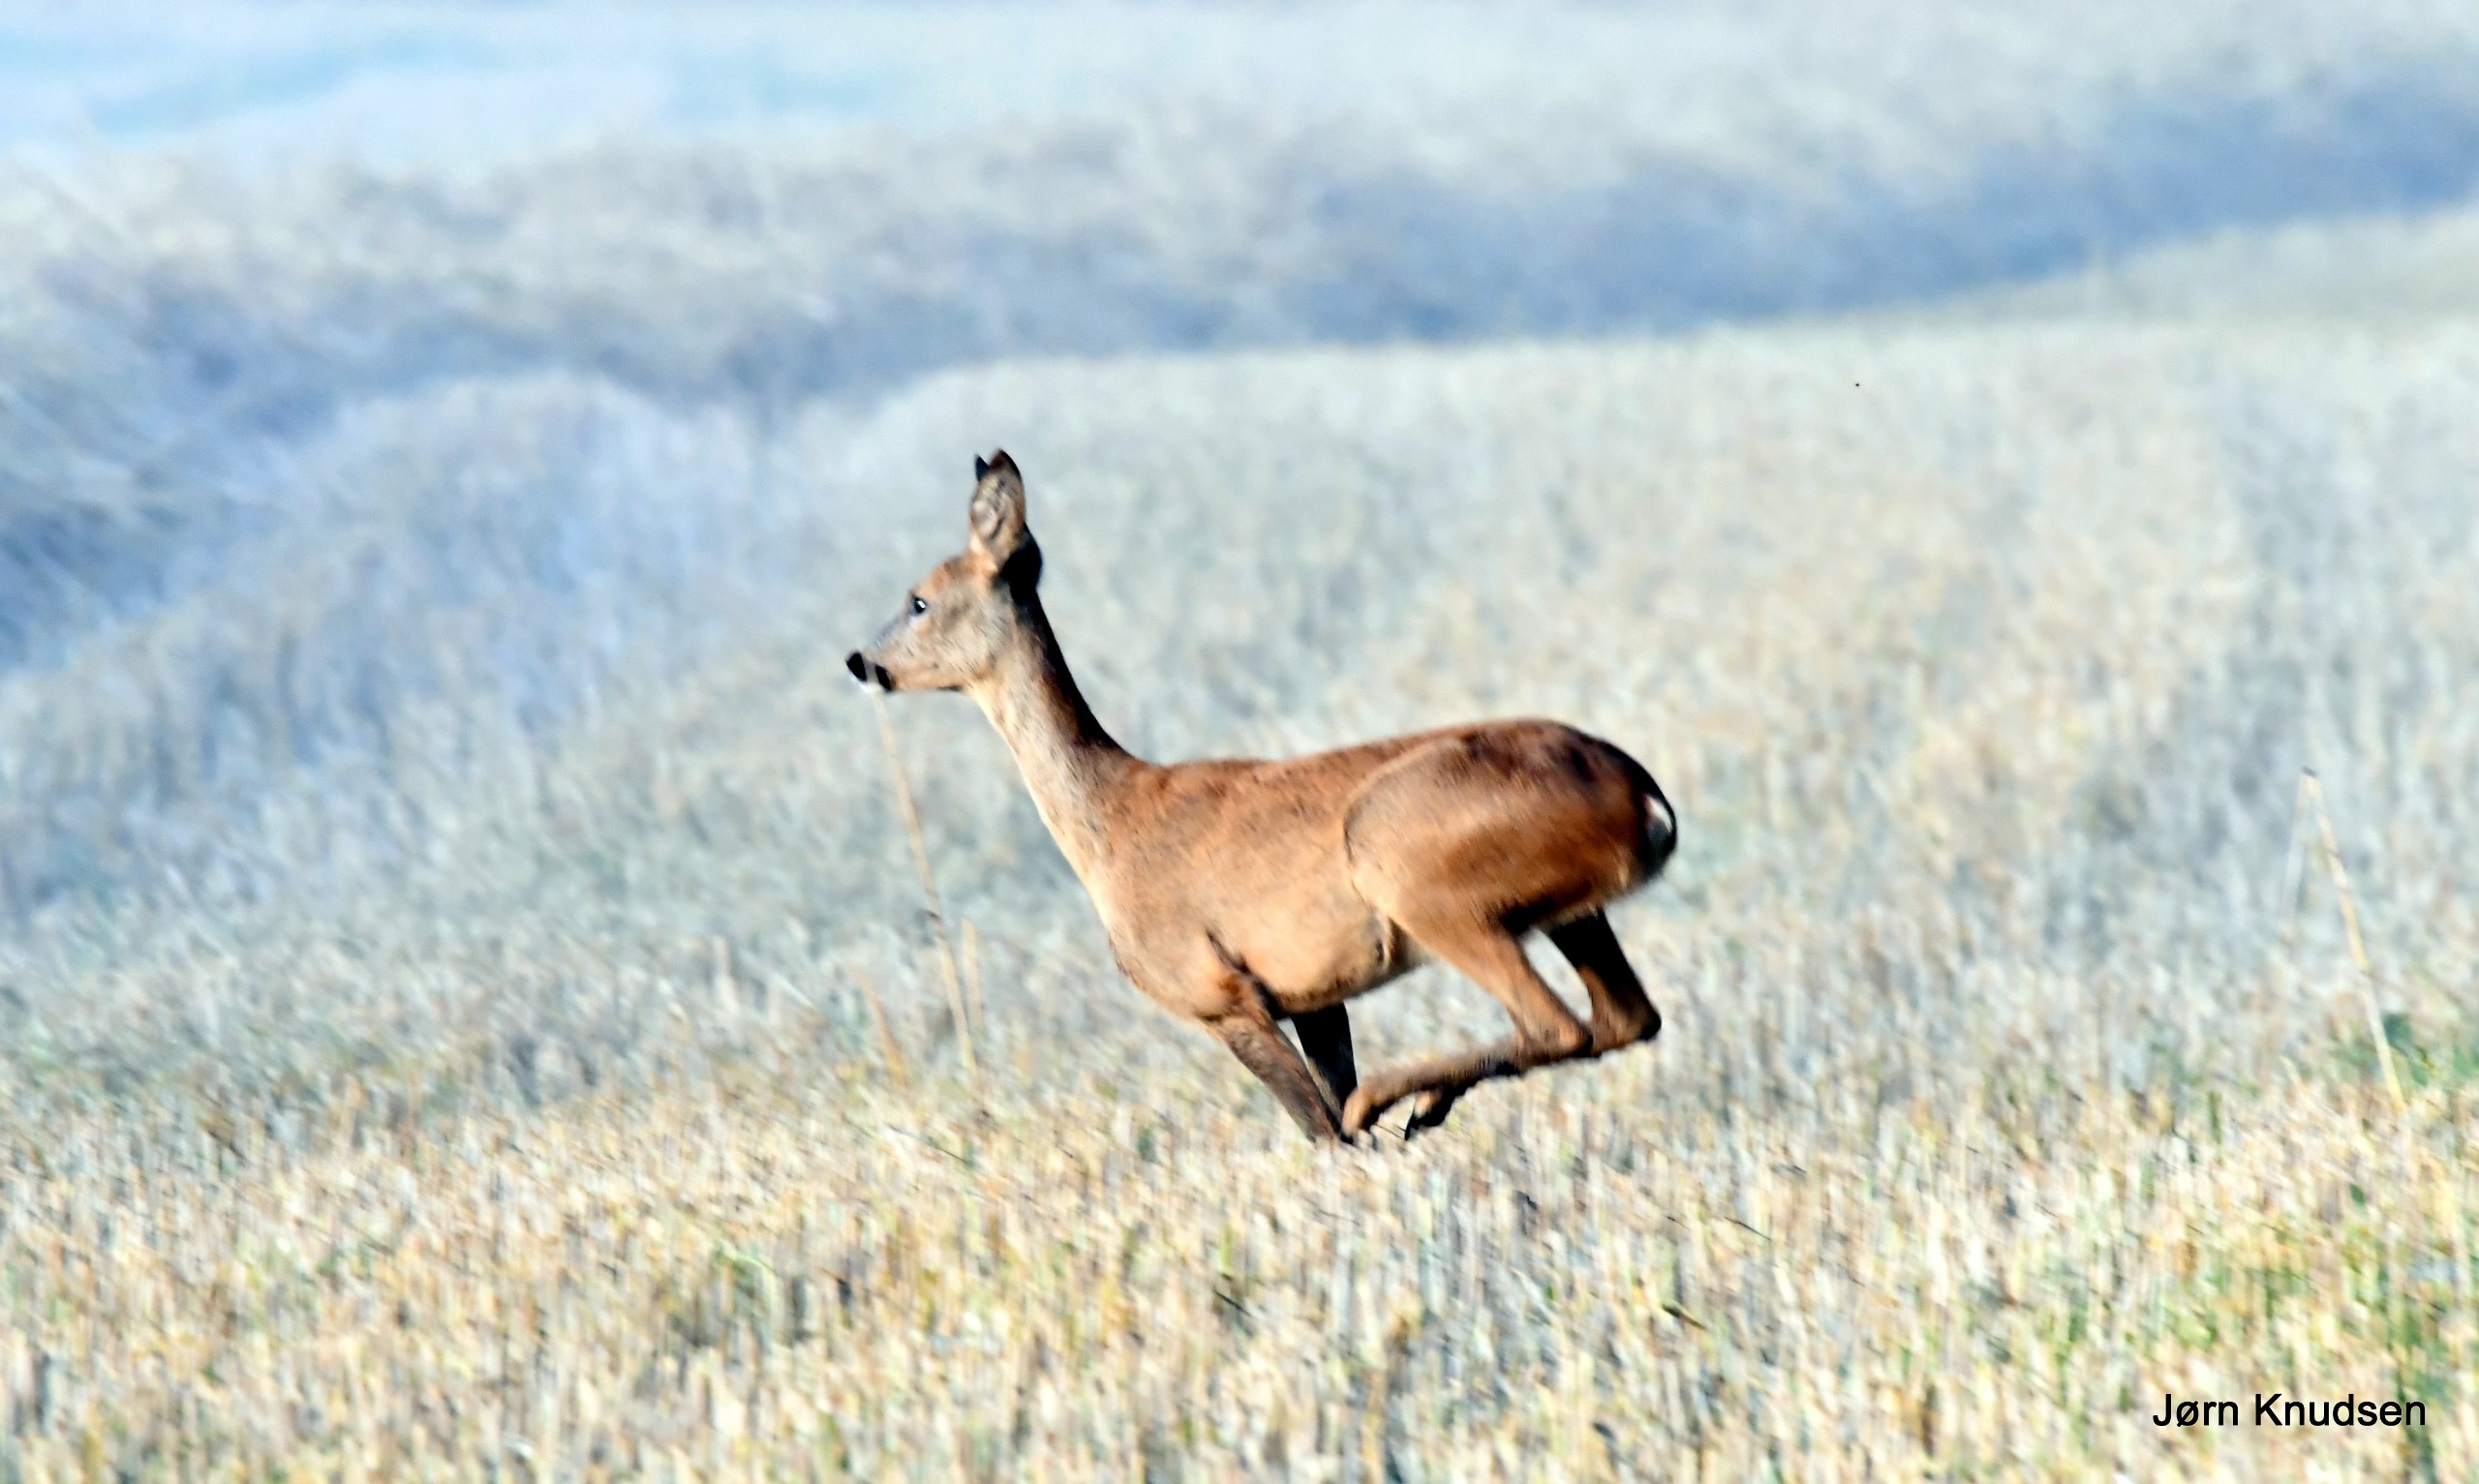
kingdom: Animalia
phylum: Chordata
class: Mammalia
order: Artiodactyla
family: Cervidae
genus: Capreolus
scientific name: Capreolus capreolus
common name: Rådyr
